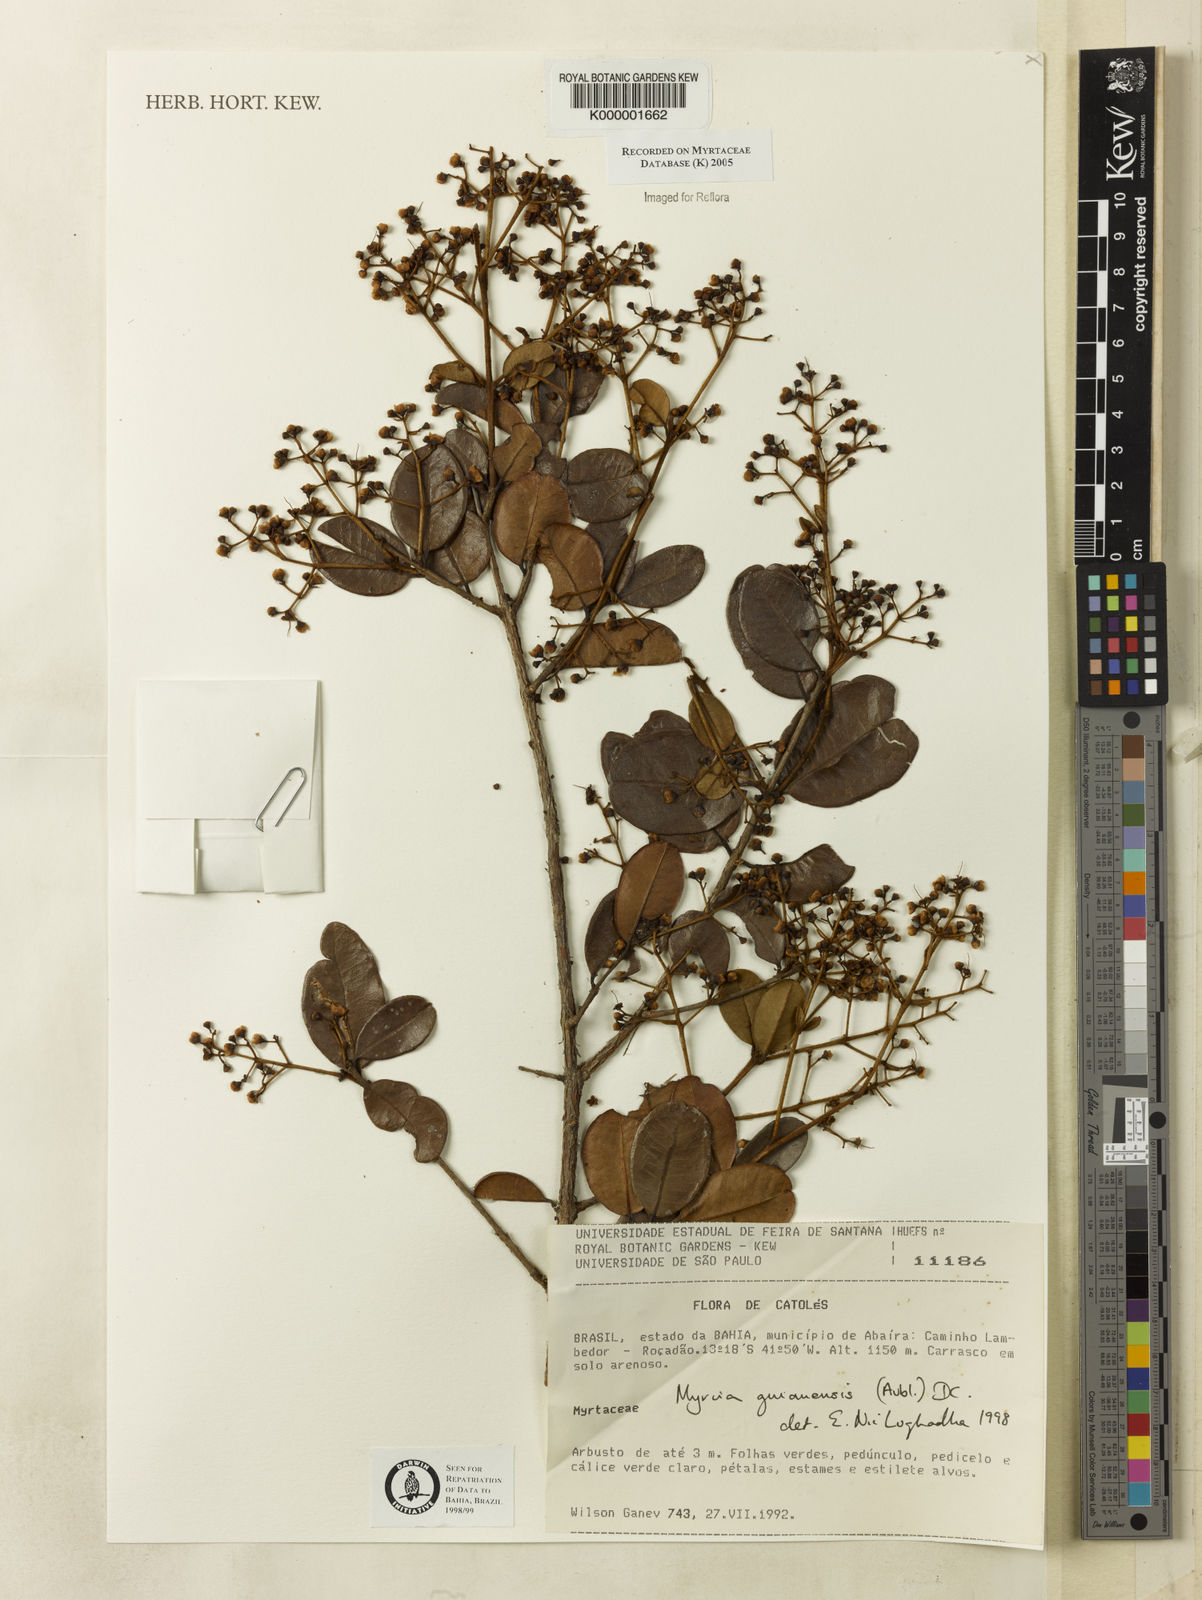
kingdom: Plantae
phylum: Tracheophyta
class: Magnoliopsida
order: Myrtales
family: Myrtaceae
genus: Myrcia
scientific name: Myrcia guianensis
